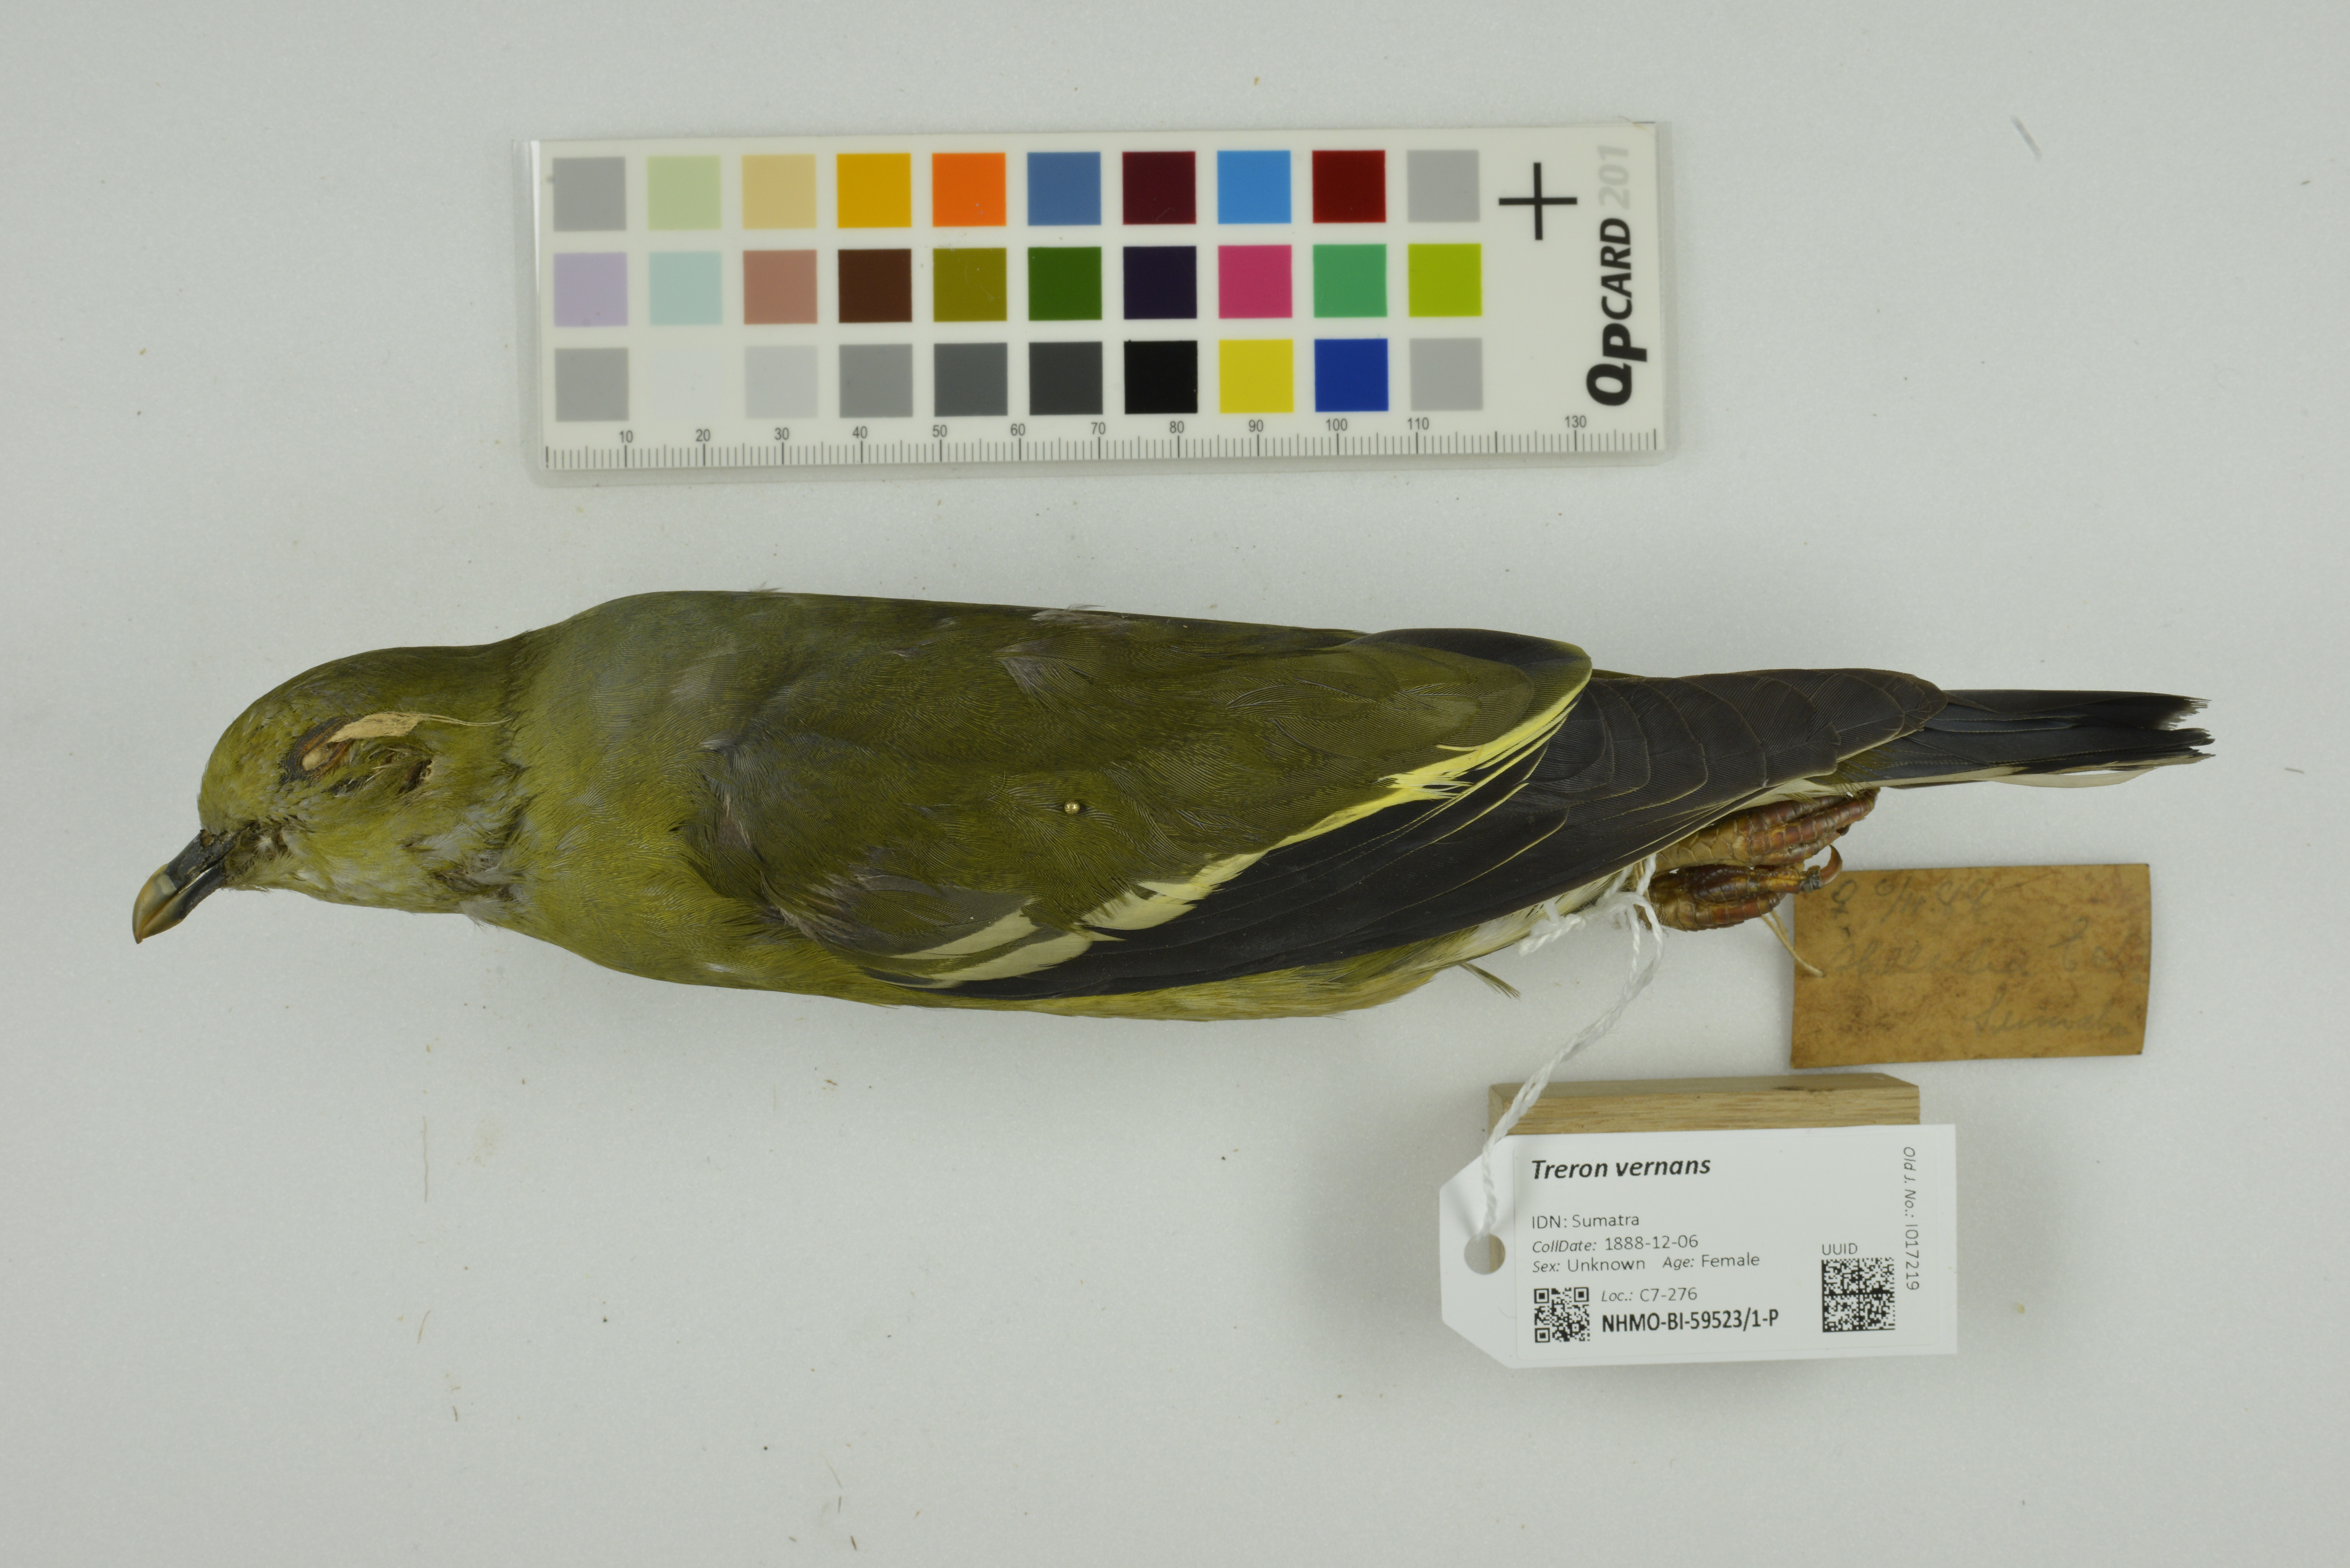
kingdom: Animalia
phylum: Chordata
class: Aves
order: Columbiformes
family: Columbidae
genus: Treron
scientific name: Treron vernans
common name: Pink-necked green pigeon
